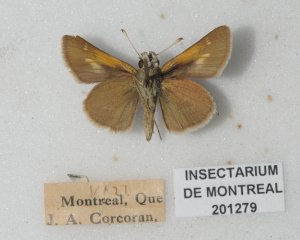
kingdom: Animalia
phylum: Arthropoda
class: Insecta
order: Lepidoptera
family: Hesperiidae
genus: Polites
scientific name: Polites themistocles
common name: Tawny-edged Skipper
